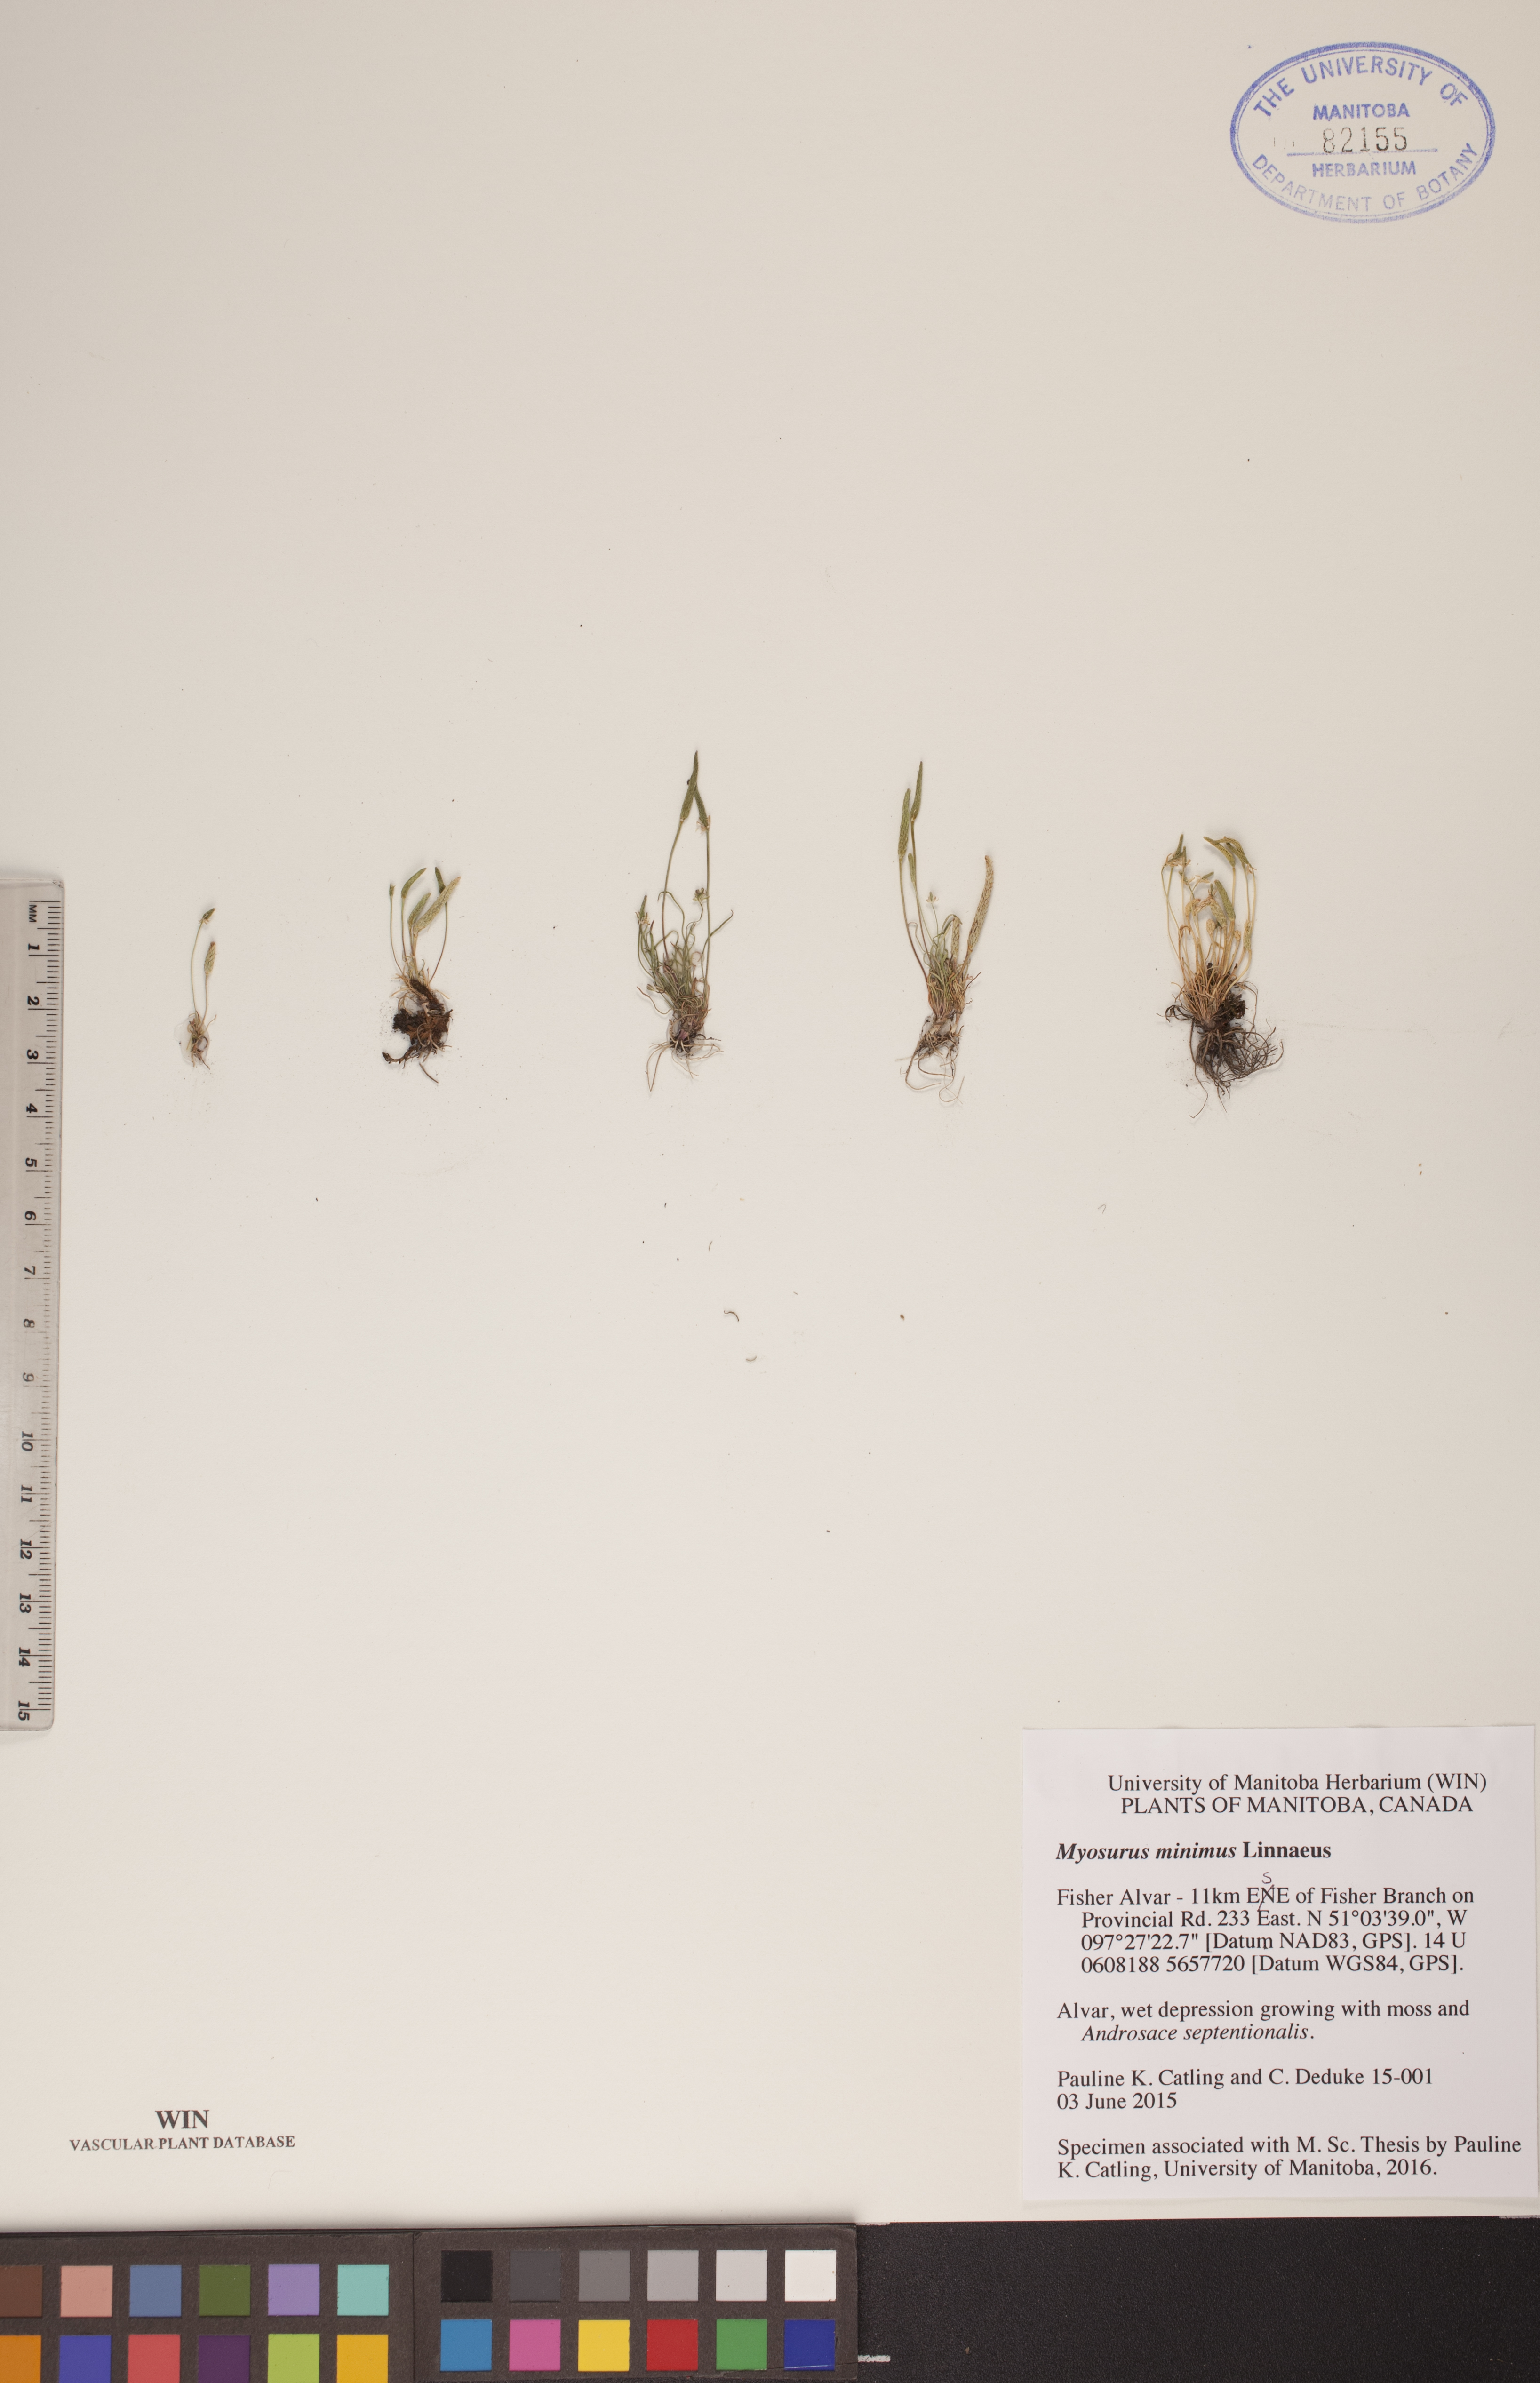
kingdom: Plantae
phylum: Tracheophyta
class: Magnoliopsida
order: Ranunculales
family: Ranunculaceae
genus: Myosurus
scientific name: Myosurus minimus
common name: Mousetail
